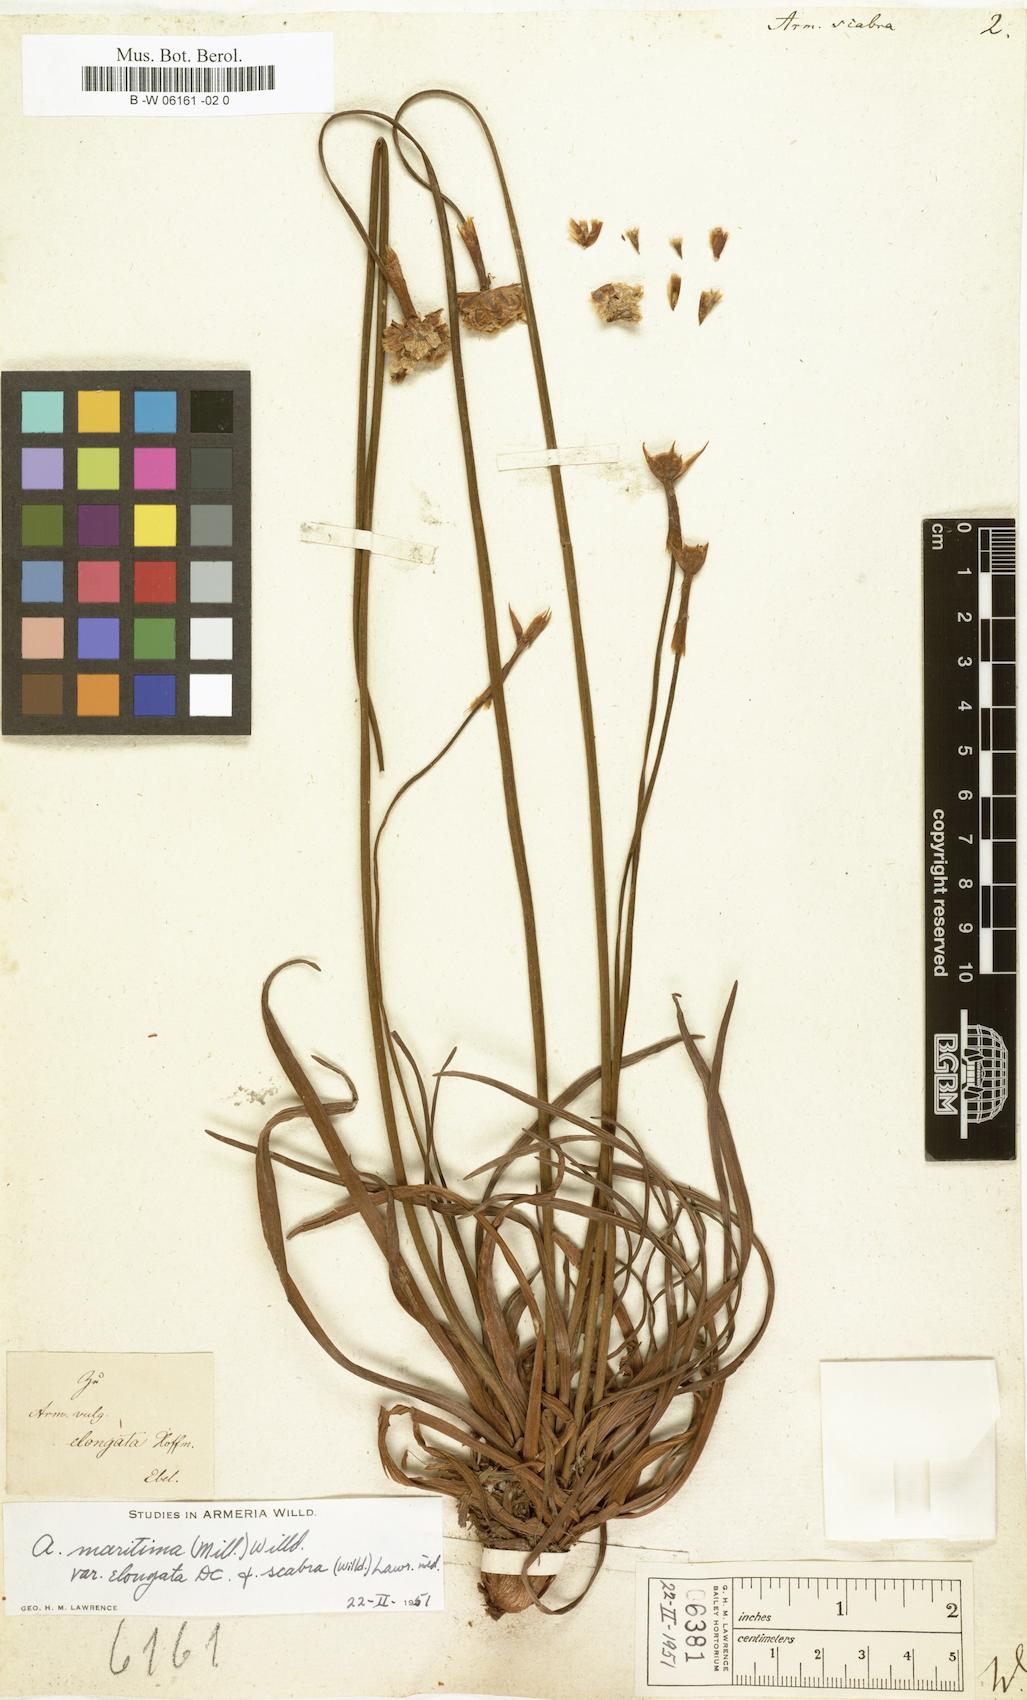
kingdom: Plantae
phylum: Tracheophyta
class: Magnoliopsida
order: Caryophyllales
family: Plumbaginaceae
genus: Armeria
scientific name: Armeria maritima
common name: Thrift
